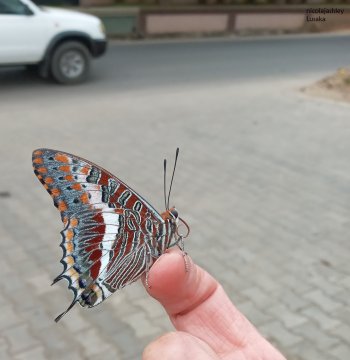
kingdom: Animalia
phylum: Arthropoda
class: Insecta
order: Lepidoptera
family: Nymphalidae
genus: Charaxes
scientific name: Charaxes brutus
